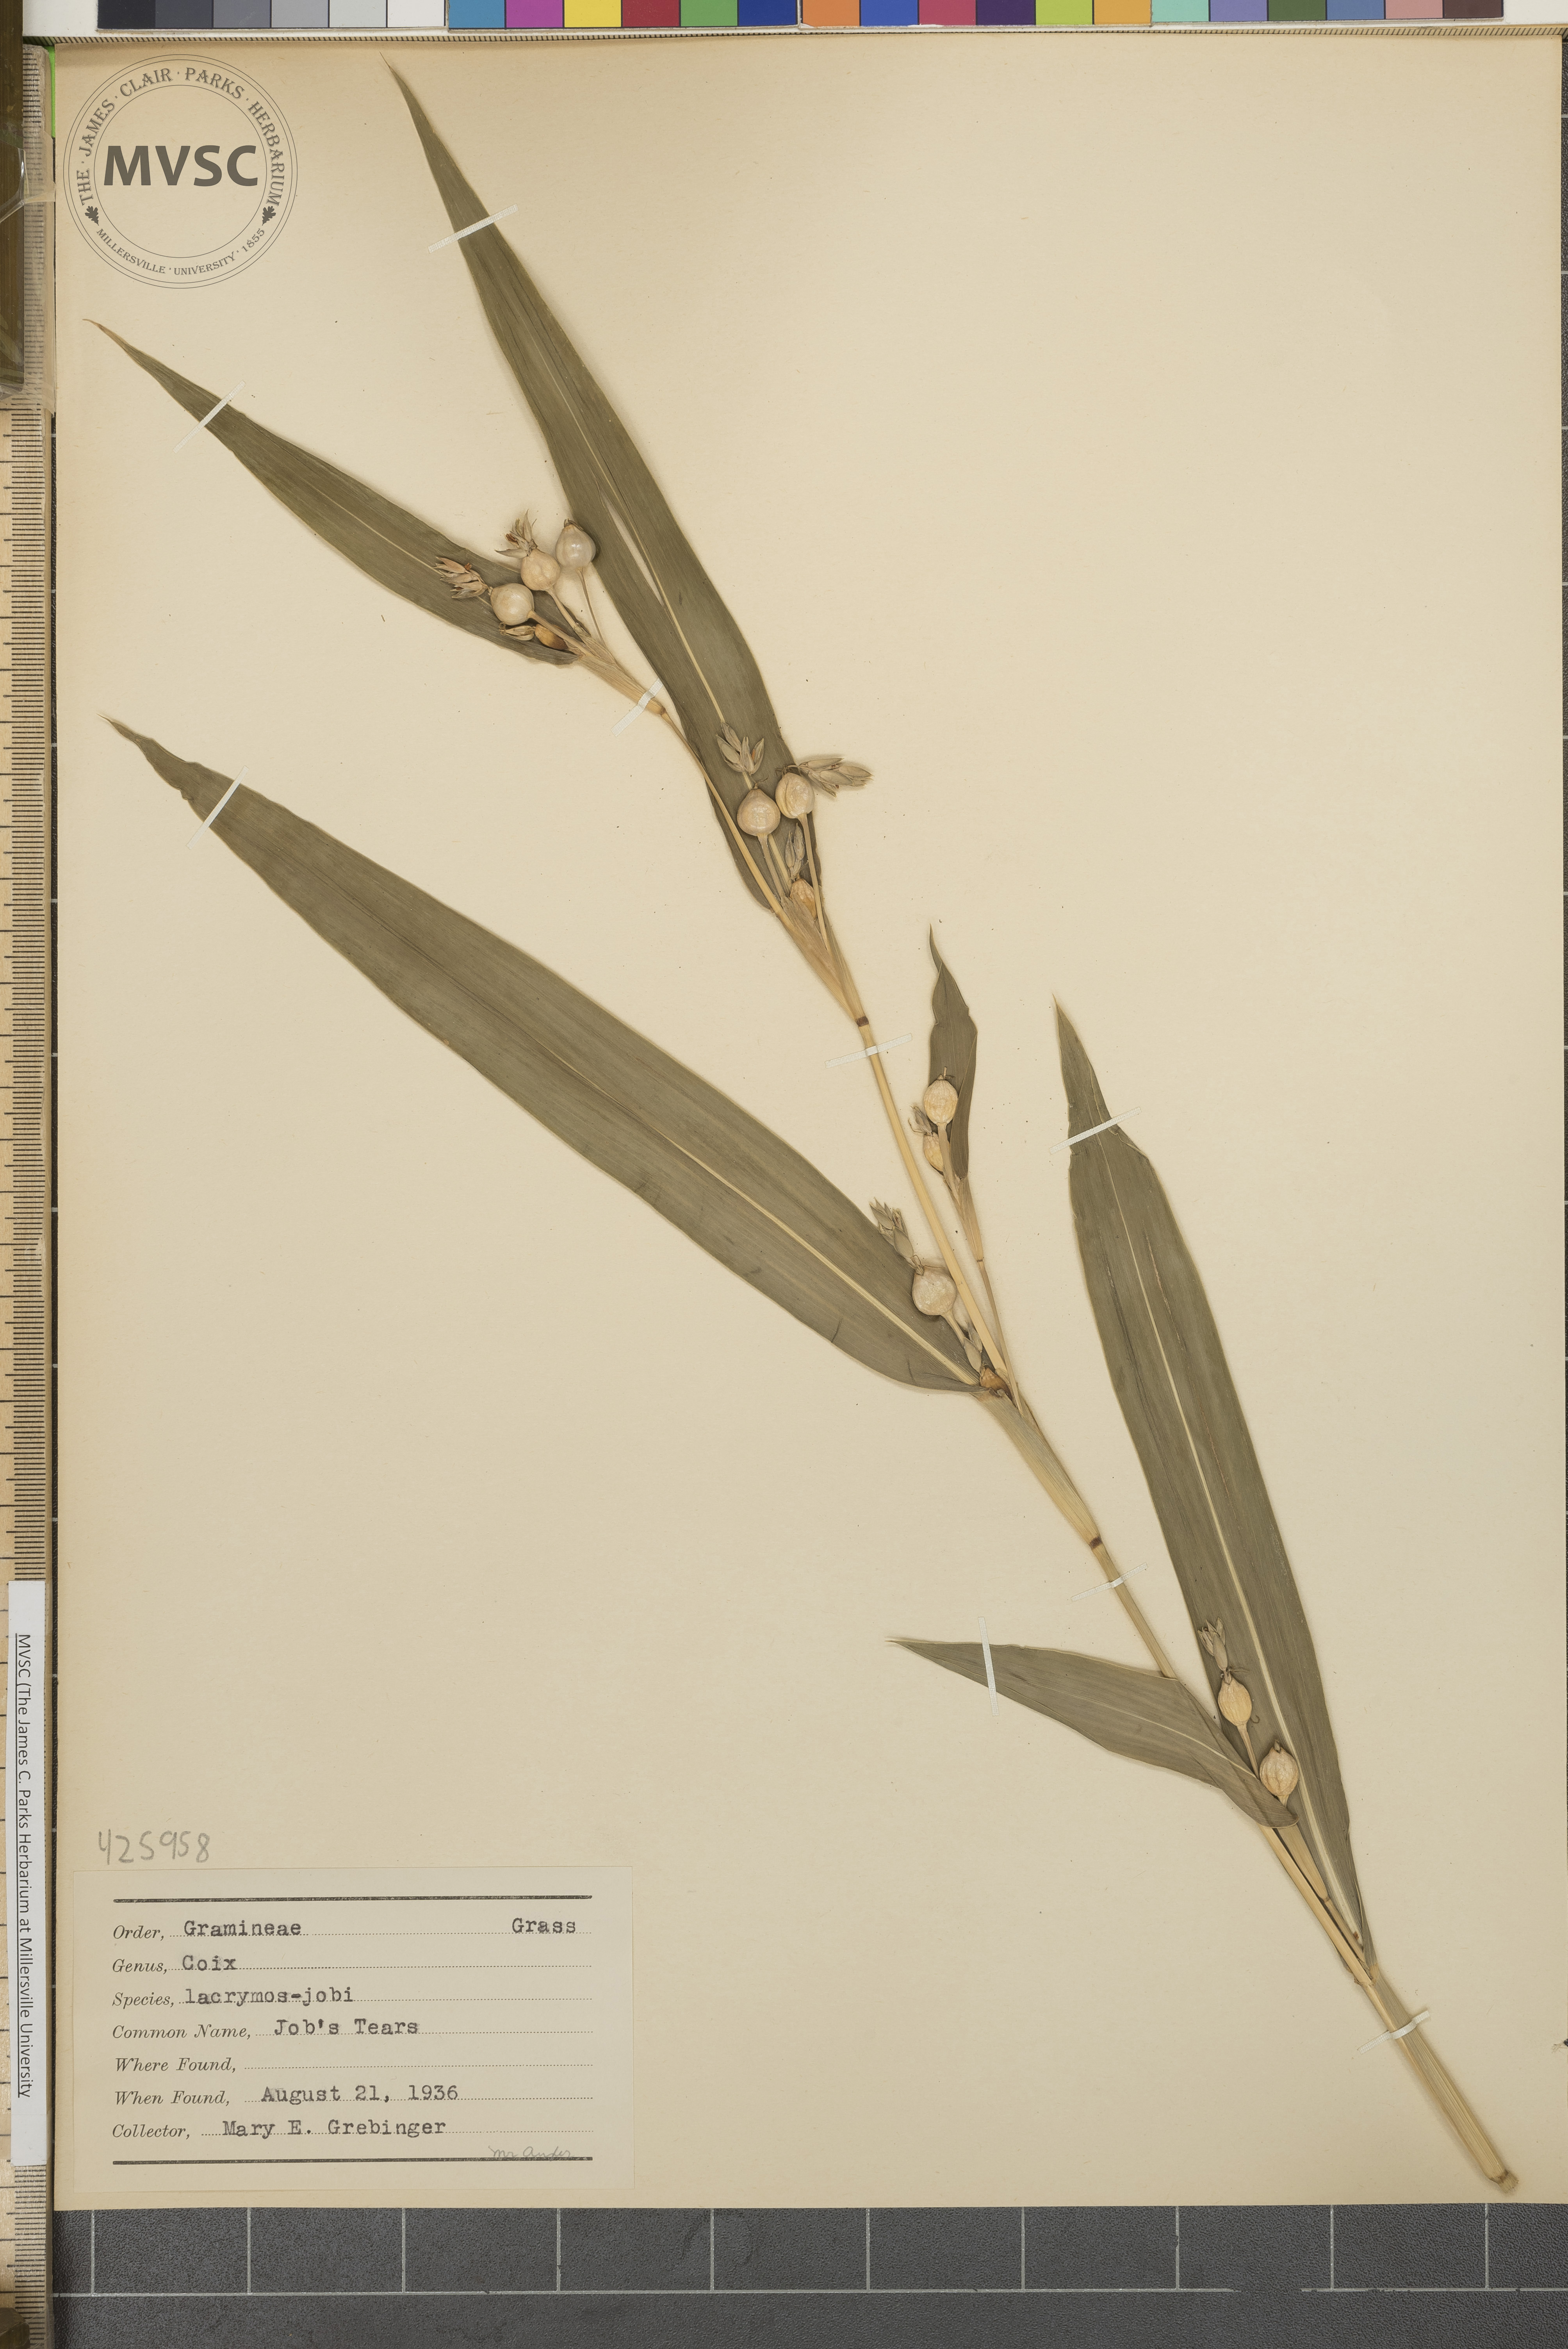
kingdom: Plantae
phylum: Tracheophyta
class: Liliopsida
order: Poales
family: Poaceae
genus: Coix
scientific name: Coix lacryma-jobi
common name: Job's tears
